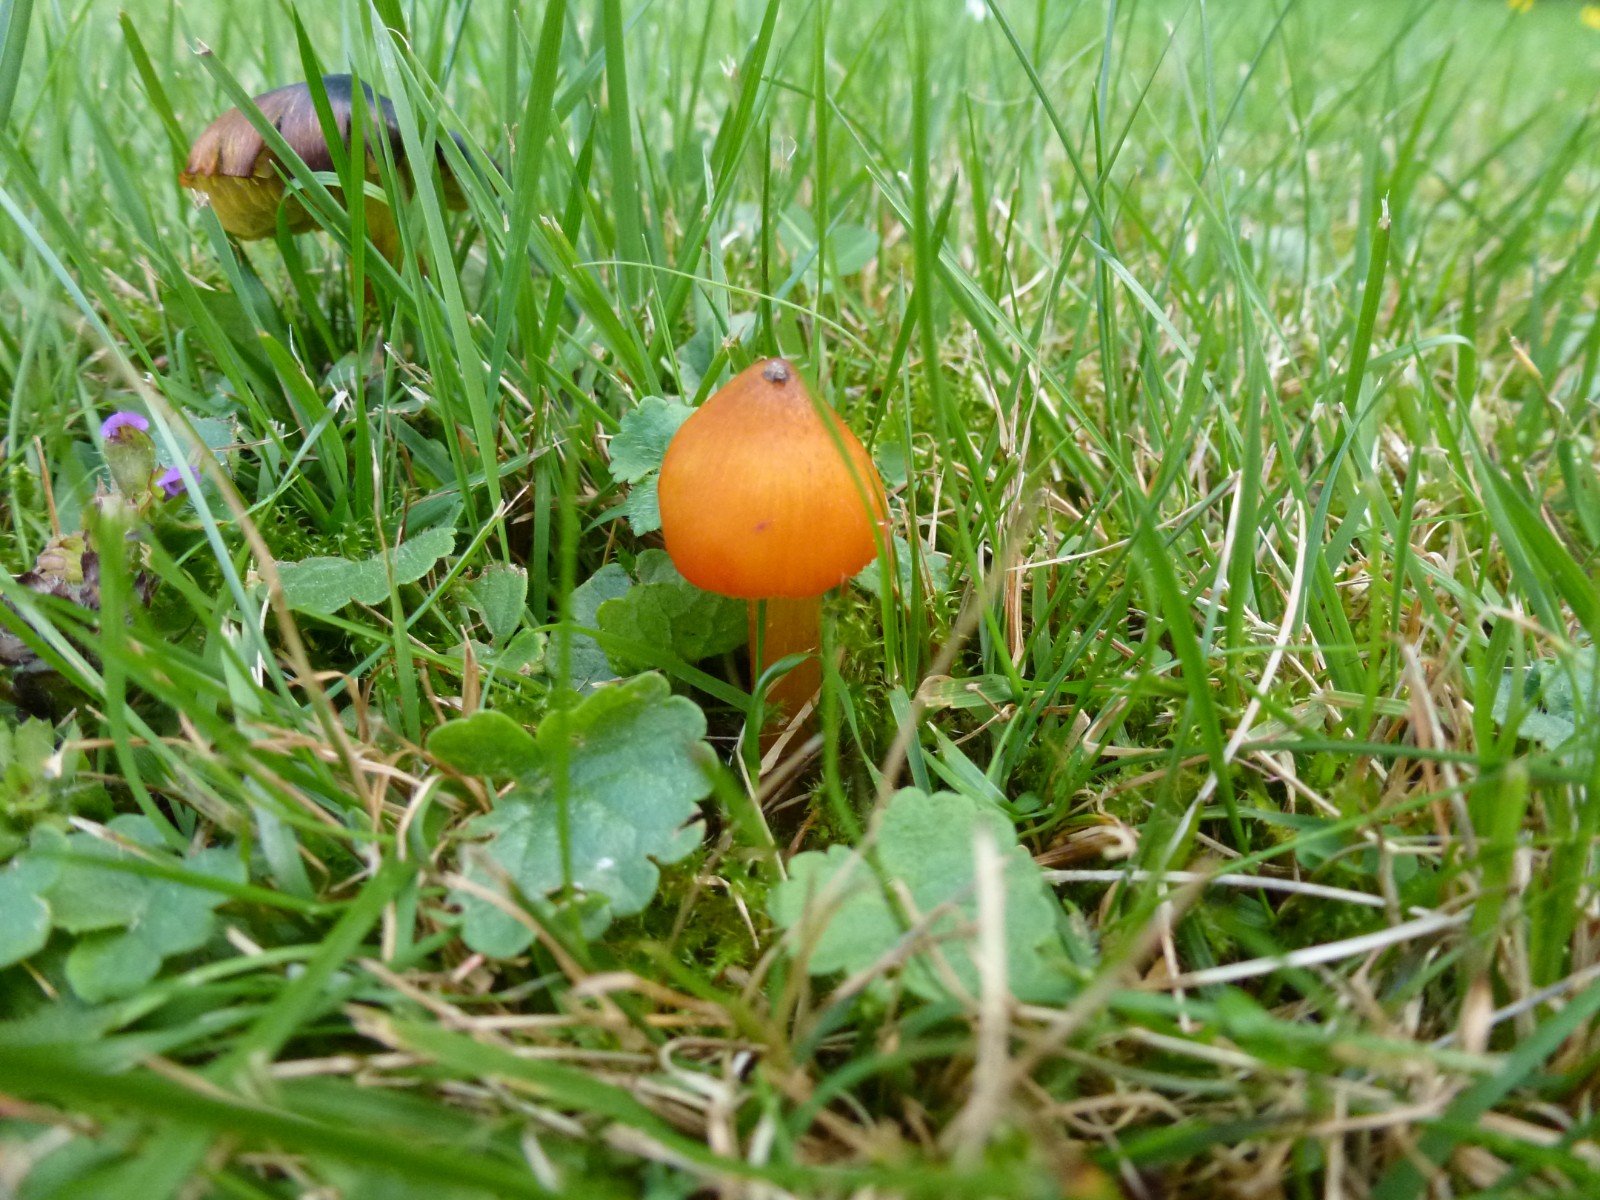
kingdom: Fungi
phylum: Basidiomycota
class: Agaricomycetes
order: Agaricales
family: Hygrophoraceae
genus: Hygrocybe
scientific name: Hygrocybe conica
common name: kegle-vokshat
